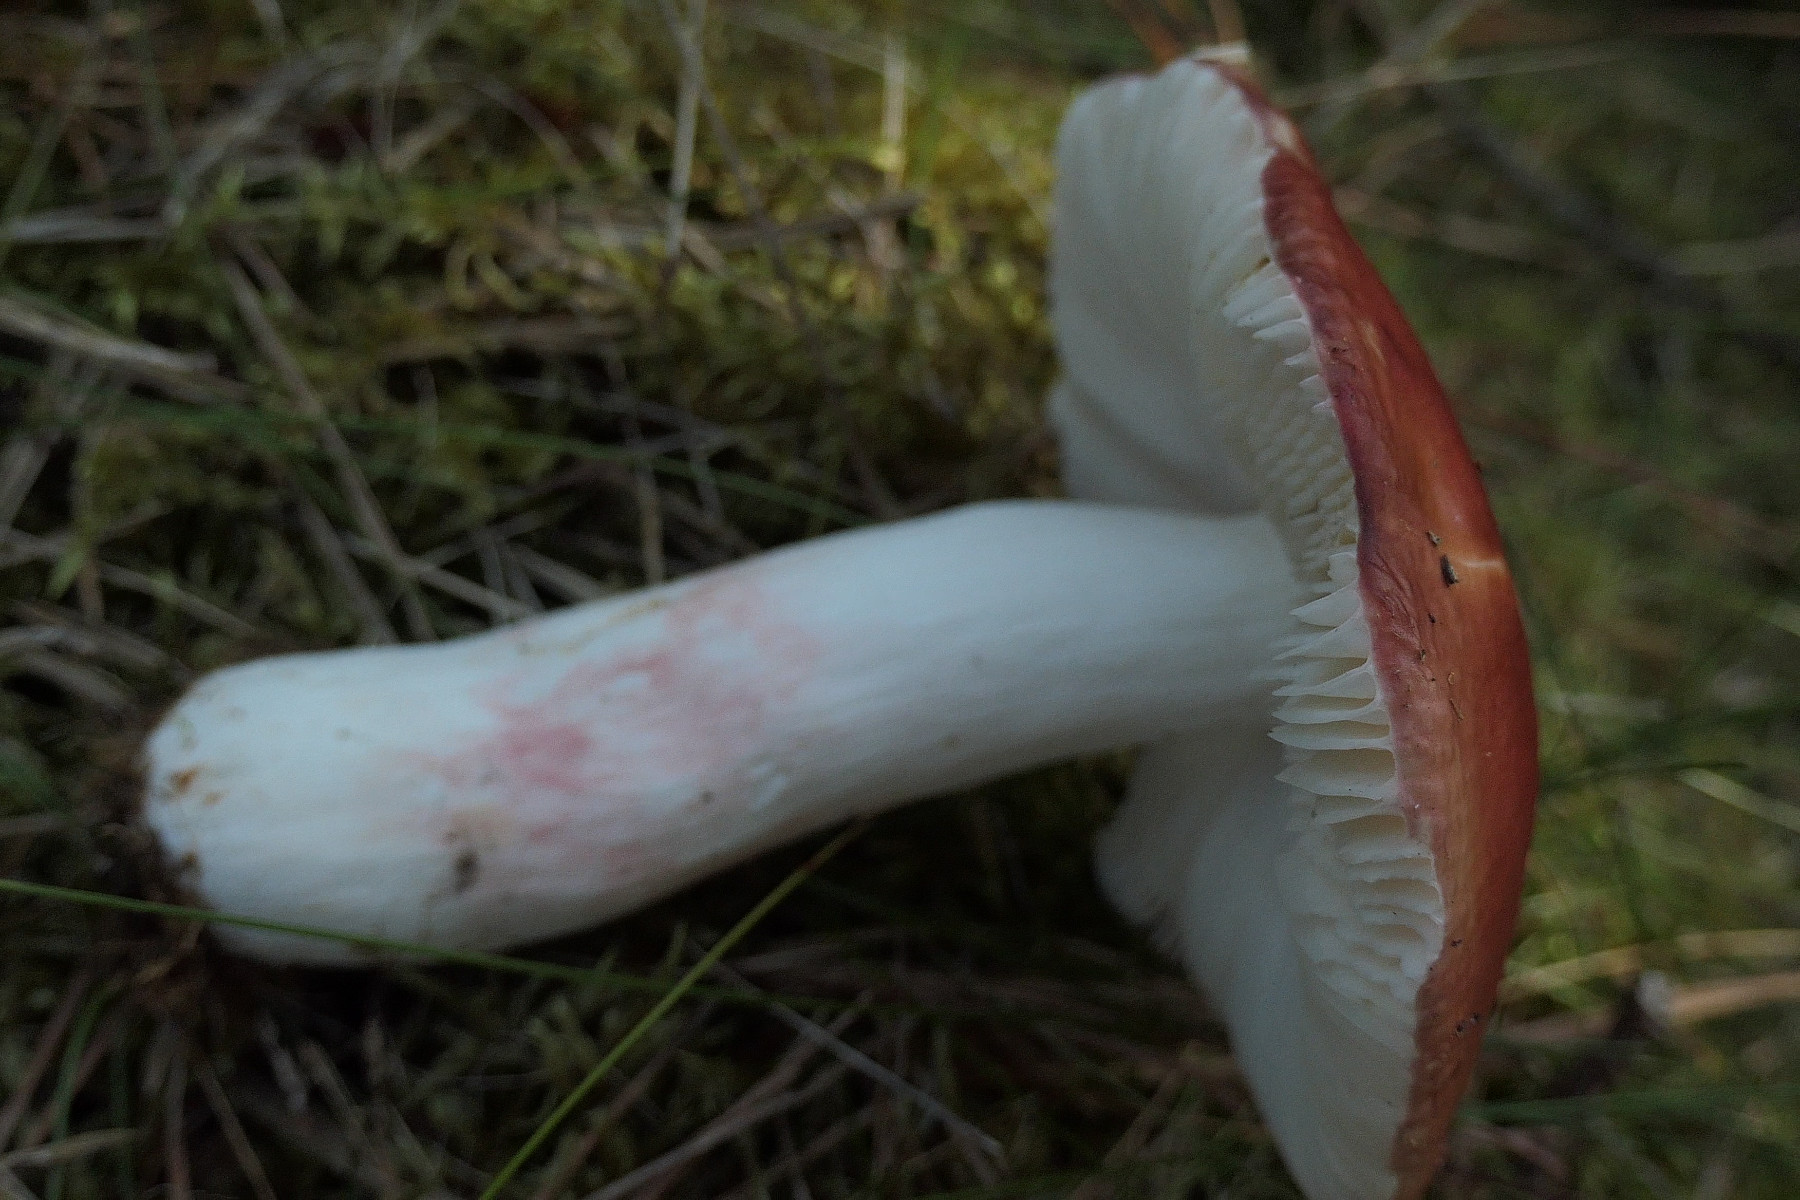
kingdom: Fungi
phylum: Basidiomycota
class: Agaricomycetes
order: Russulales
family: Russulaceae
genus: Russula
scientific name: Russula paludosa
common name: prægtig skørhat
